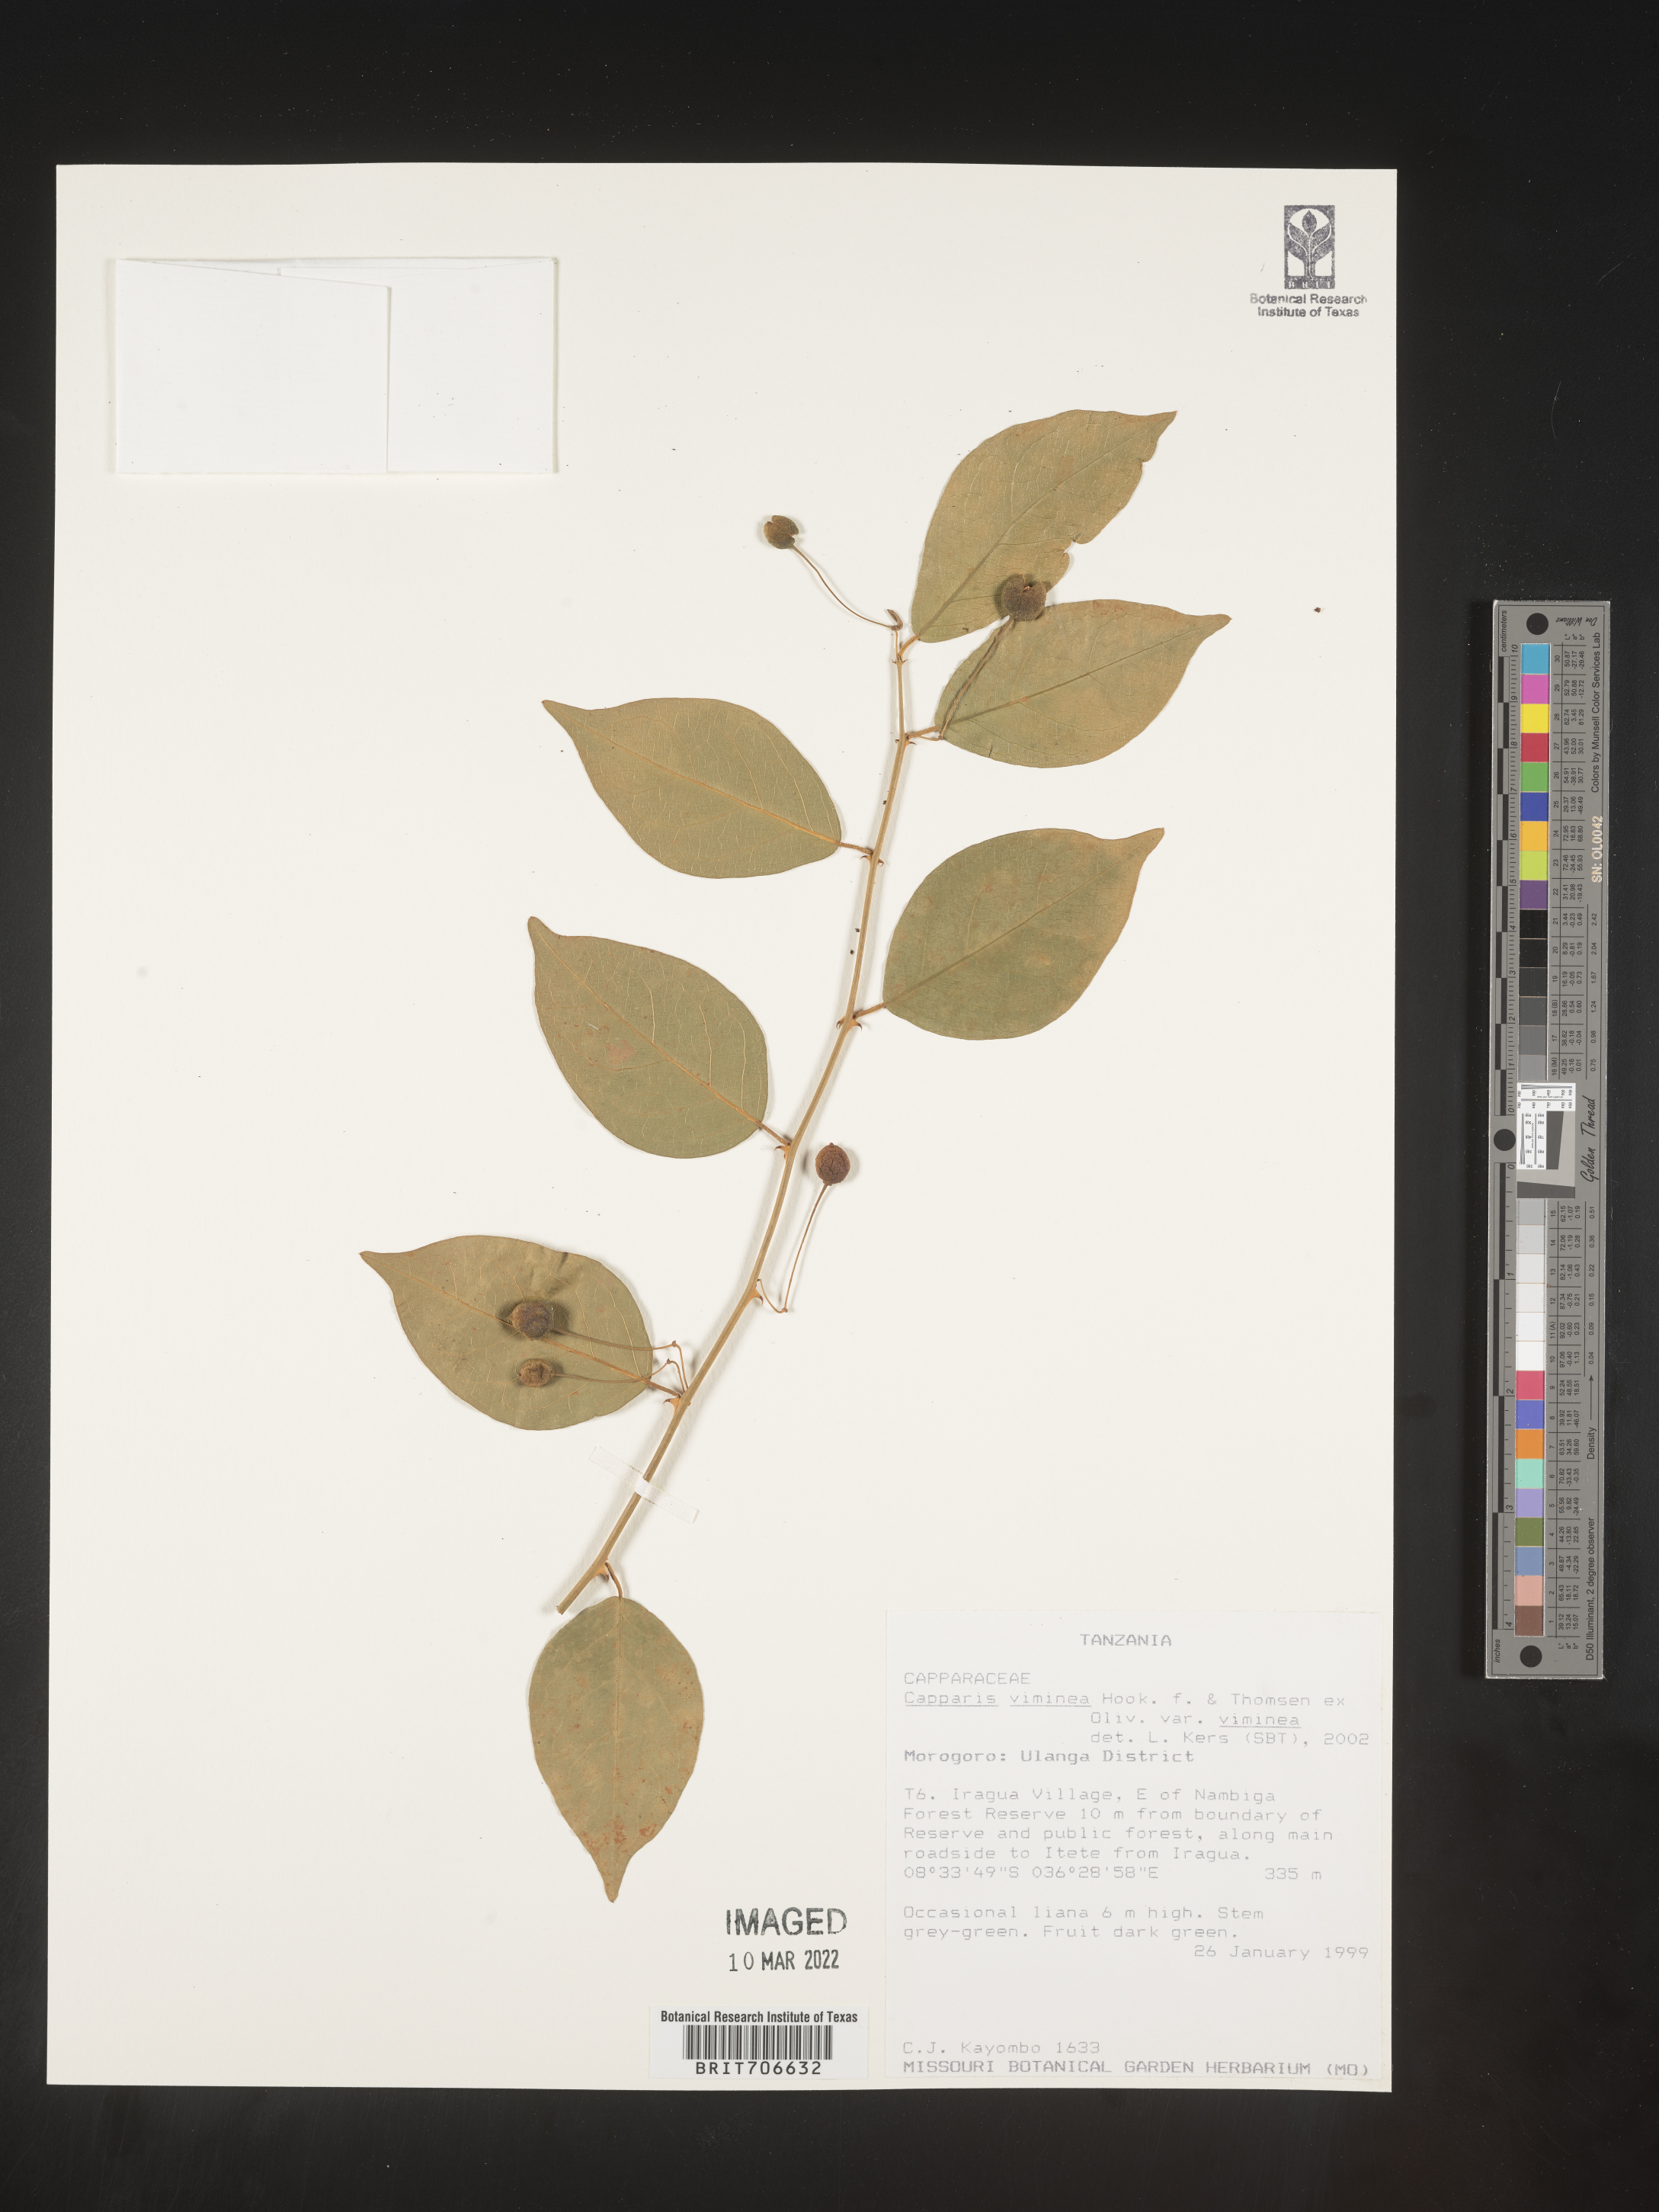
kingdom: Plantae
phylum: Tracheophyta
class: Magnoliopsida
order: Brassicales
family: Capparaceae
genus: Capparis
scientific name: Capparis
